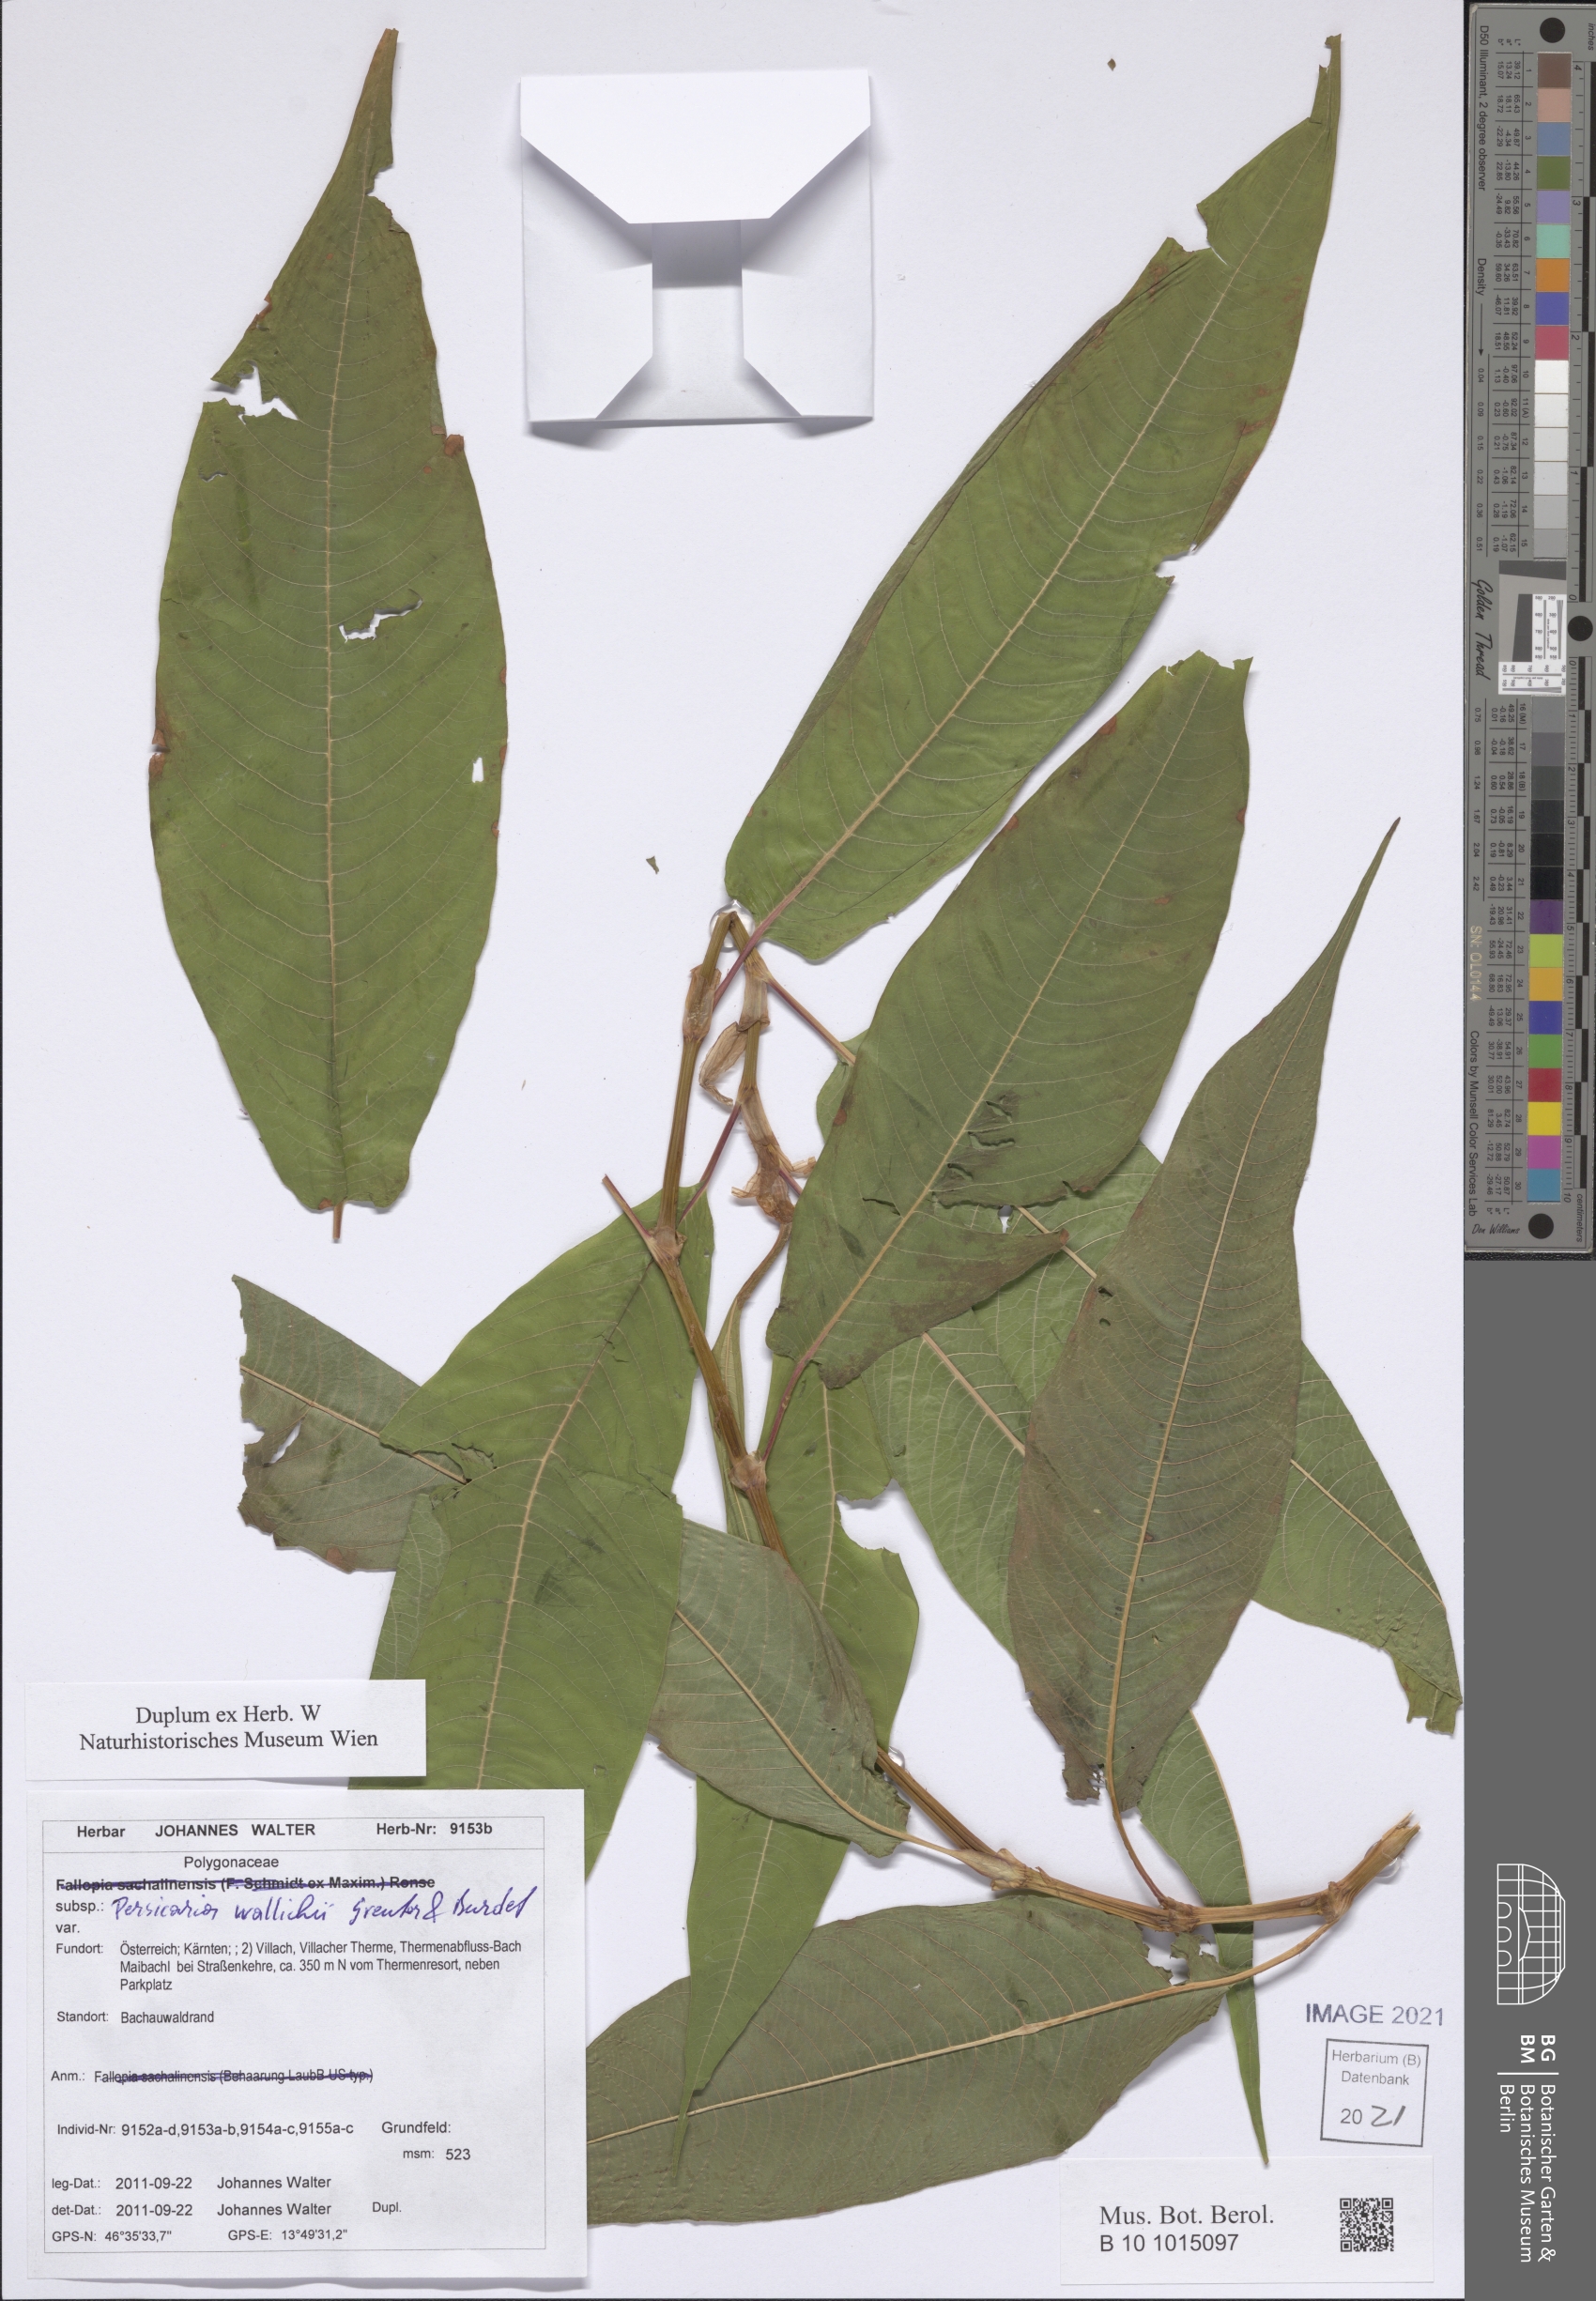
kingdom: Plantae
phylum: Tracheophyta
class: Magnoliopsida
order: Caryophyllales
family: Polygonaceae
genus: Koenigia
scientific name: Koenigia polystachya
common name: Himalayan knotweed
